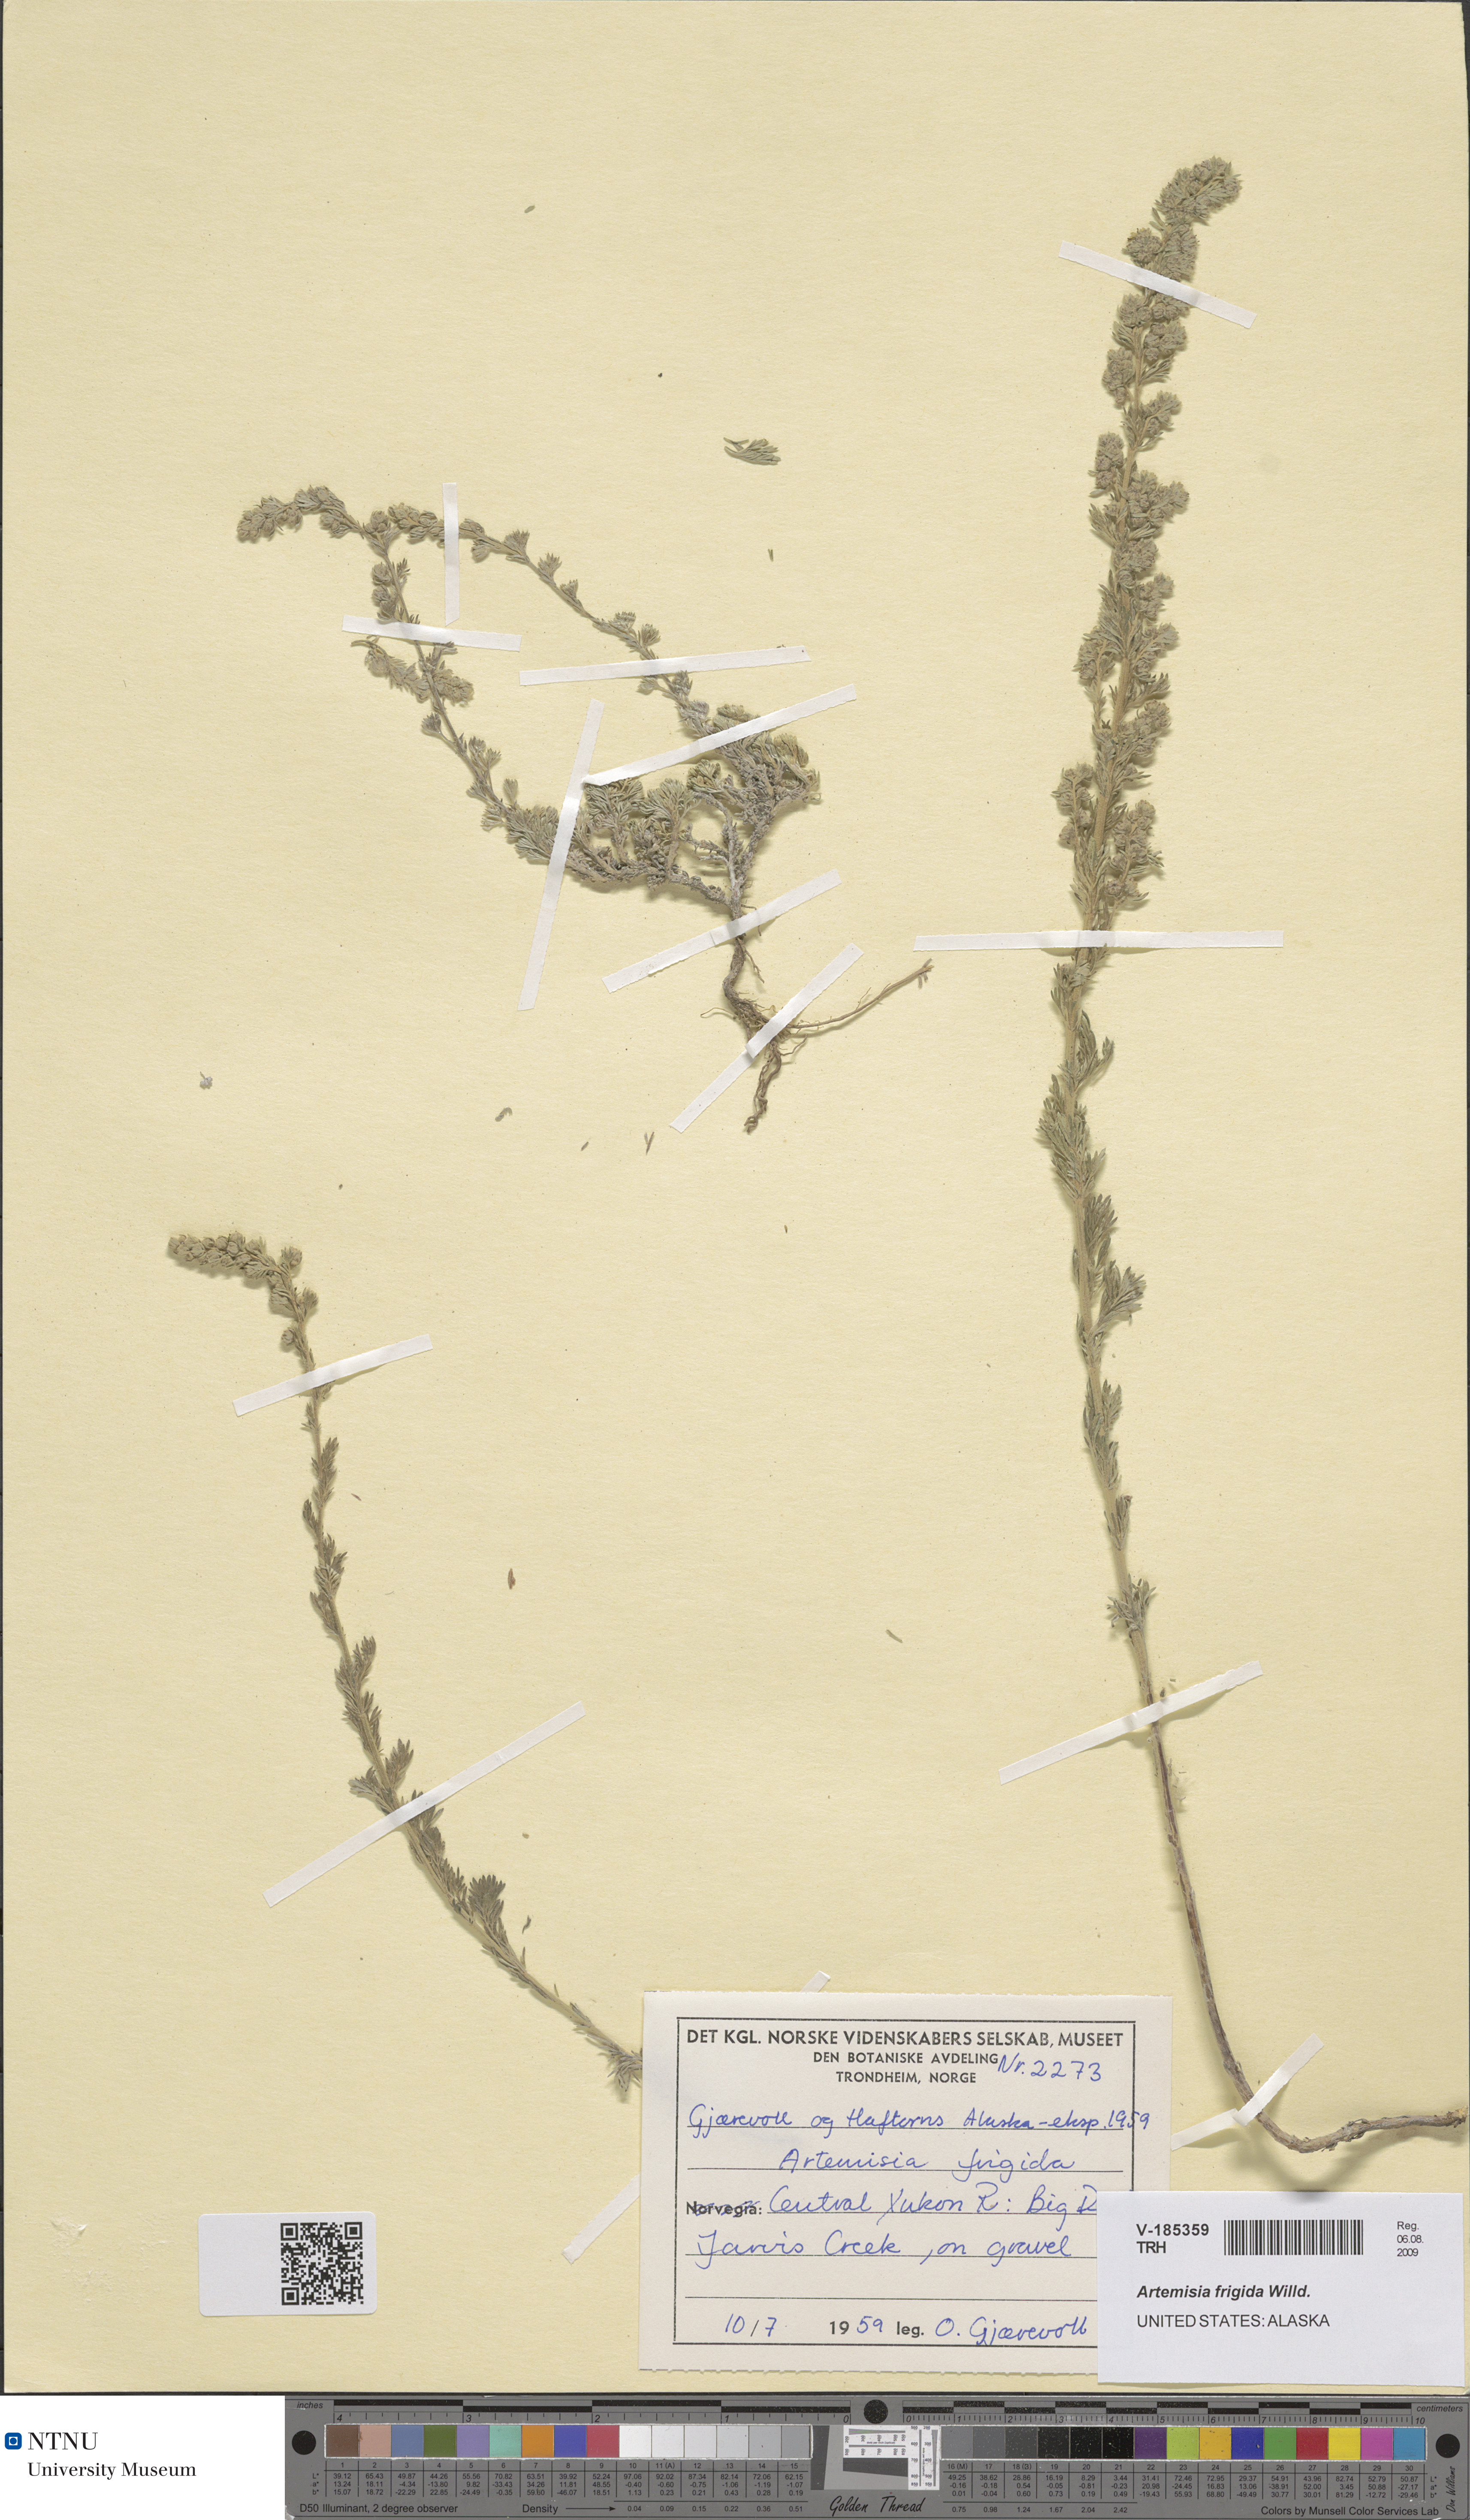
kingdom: Plantae
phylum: Tracheophyta
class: Magnoliopsida
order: Asterales
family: Asteraceae
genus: Artemisia
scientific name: Artemisia frigida
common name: Prairie sagewort
